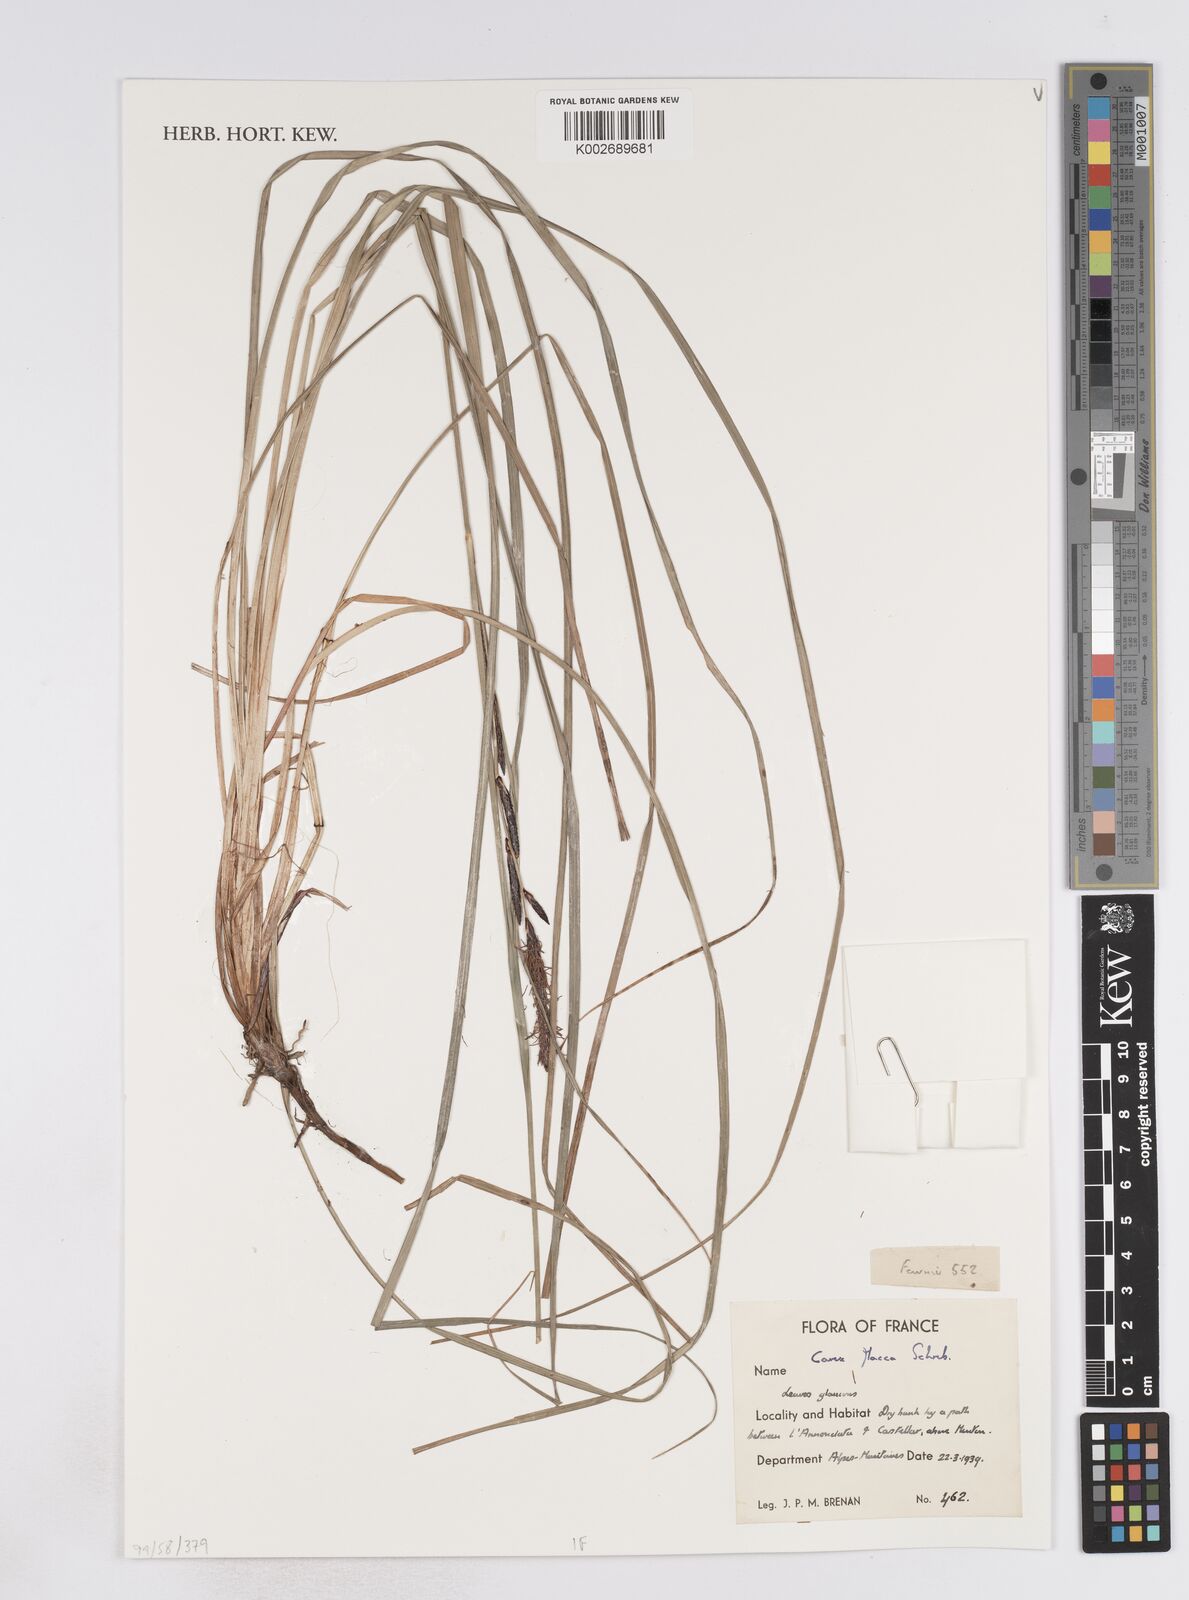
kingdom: Plantae
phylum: Tracheophyta
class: Liliopsida
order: Poales
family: Cyperaceae
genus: Carex
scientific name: Carex flacca
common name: Glaucous sedge
